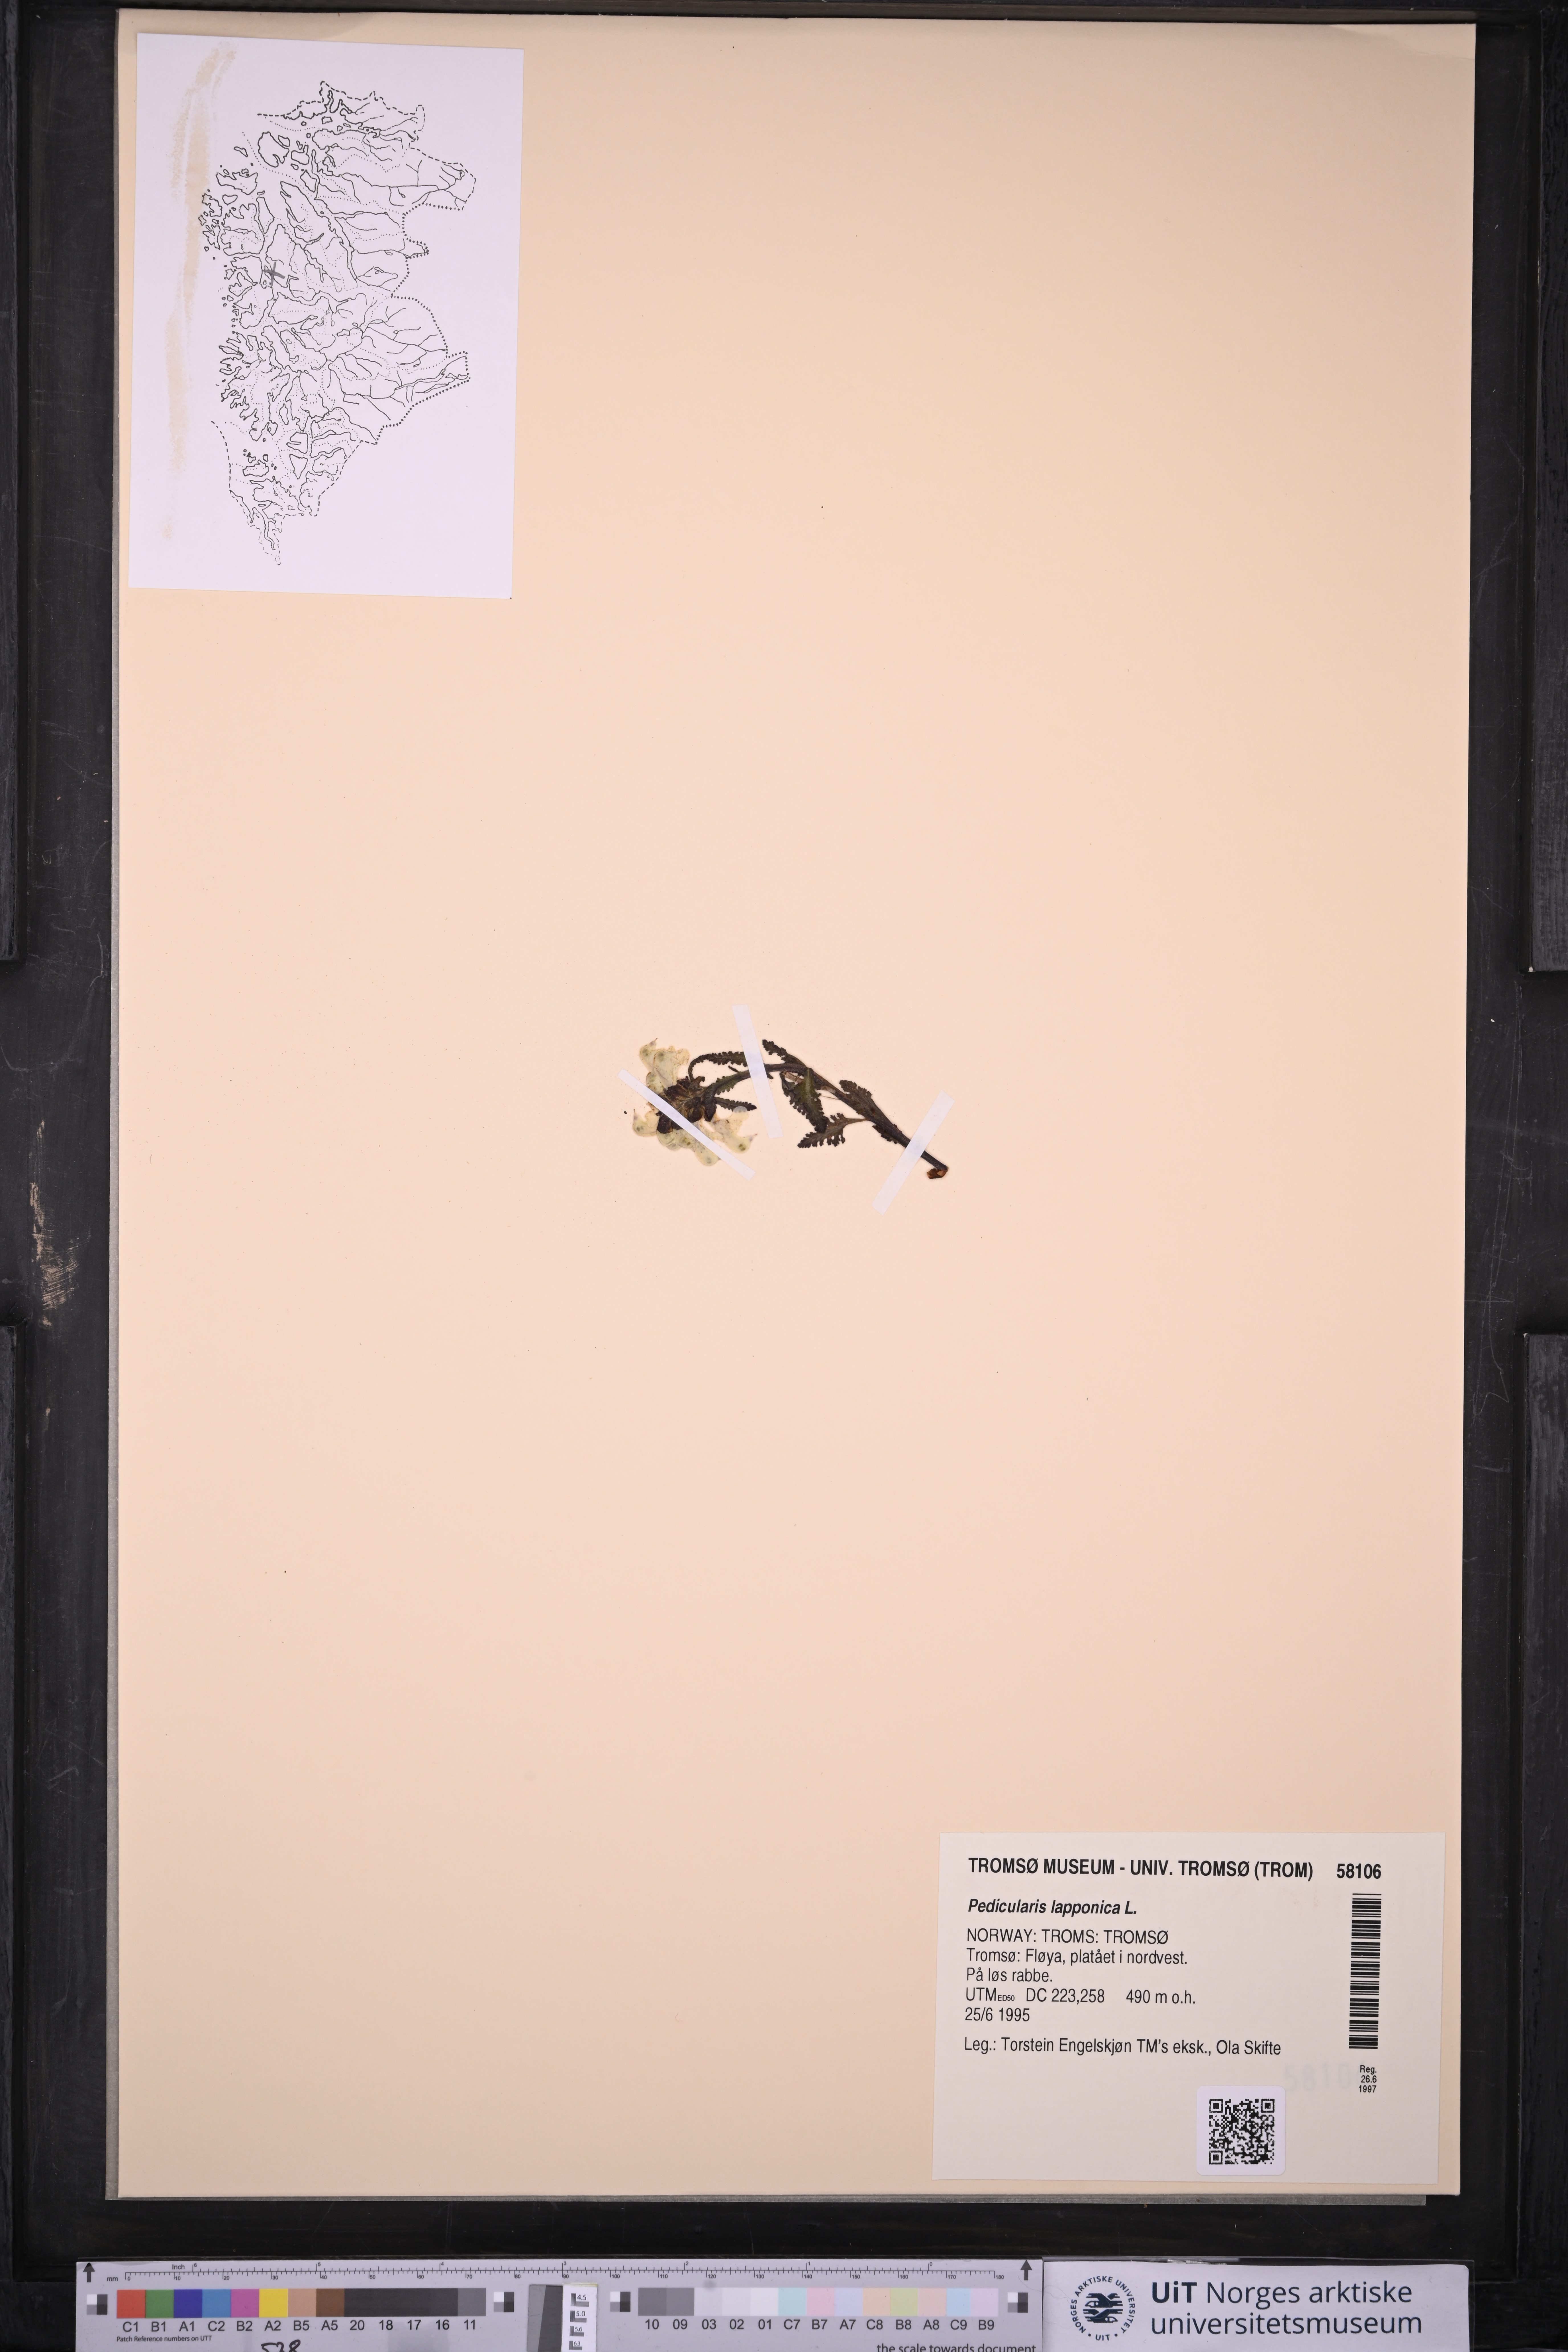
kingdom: Plantae
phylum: Tracheophyta
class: Magnoliopsida
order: Lamiales
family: Orobanchaceae
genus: Pedicularis
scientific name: Pedicularis lapponica
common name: Lapland lousewort
